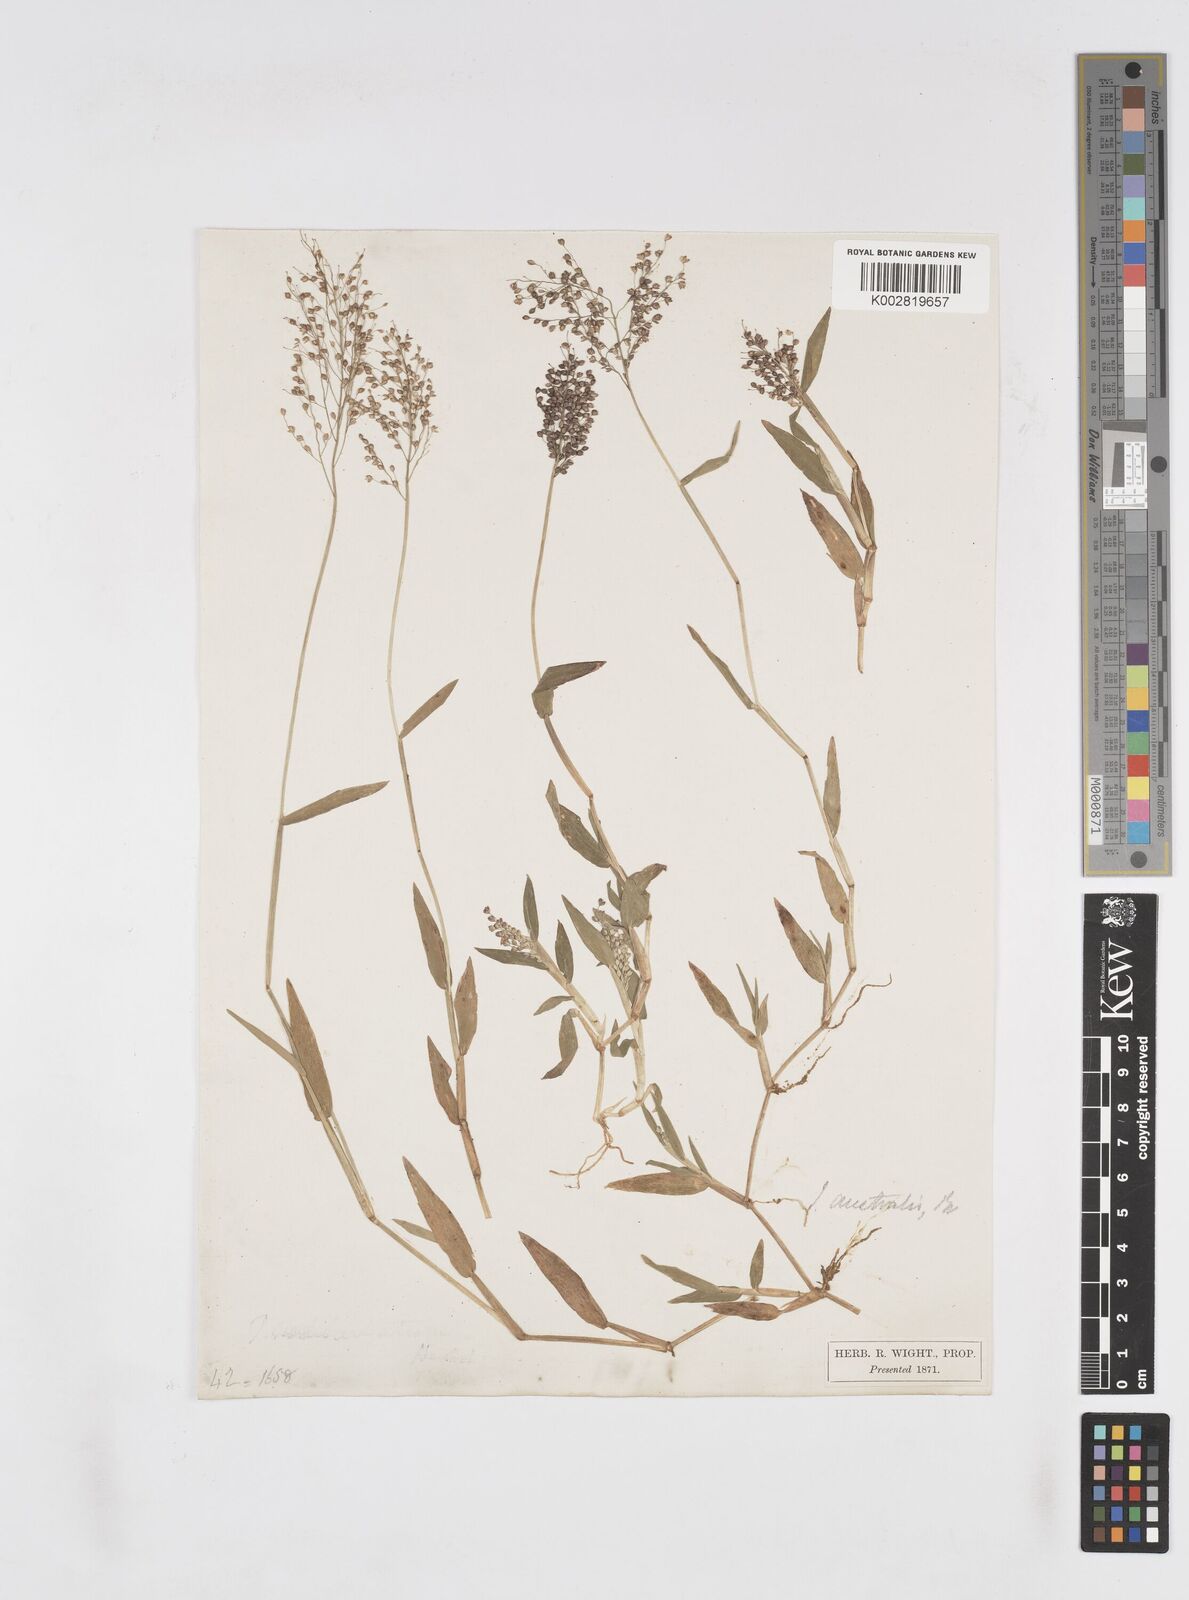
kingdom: Plantae
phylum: Tracheophyta
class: Liliopsida
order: Poales
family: Poaceae
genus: Isachne
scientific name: Isachne globosa
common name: Swamp millet
